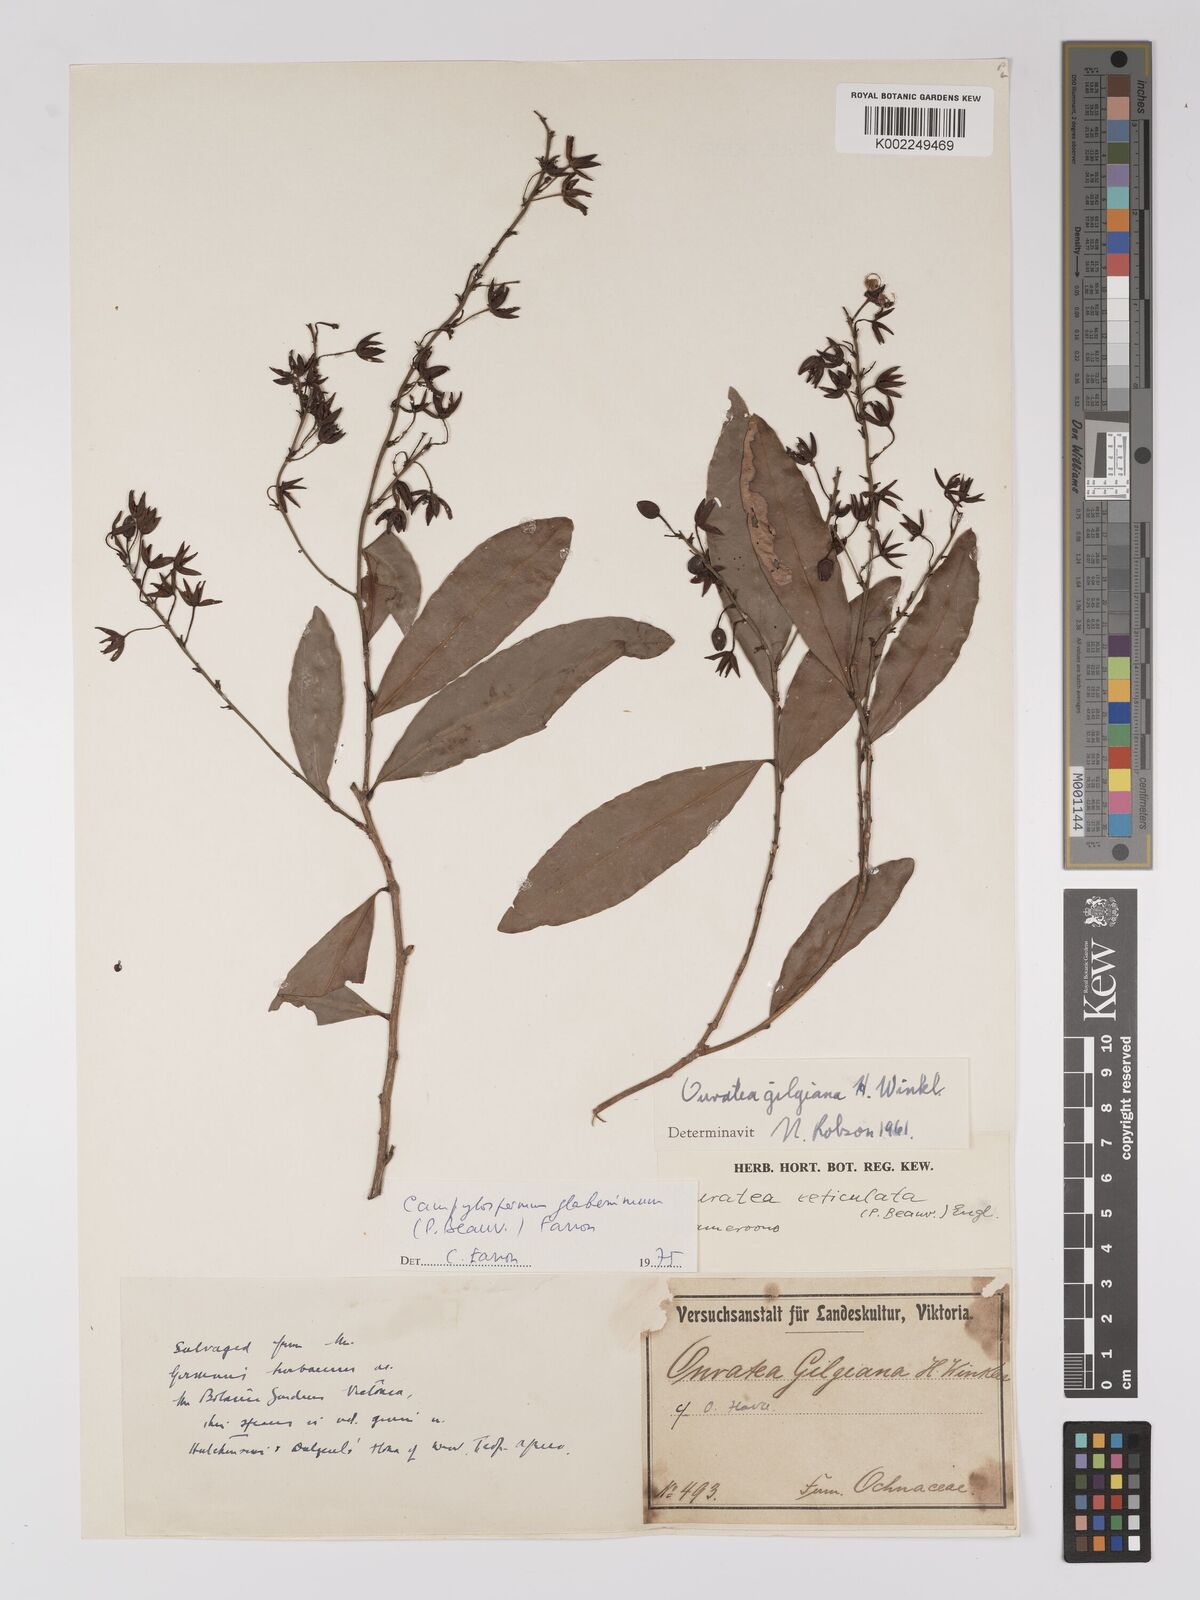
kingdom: Plantae
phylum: Tracheophyta
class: Magnoliopsida
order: Malpighiales
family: Ochnaceae
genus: Campylospermum
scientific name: Campylospermum glaberrimum
